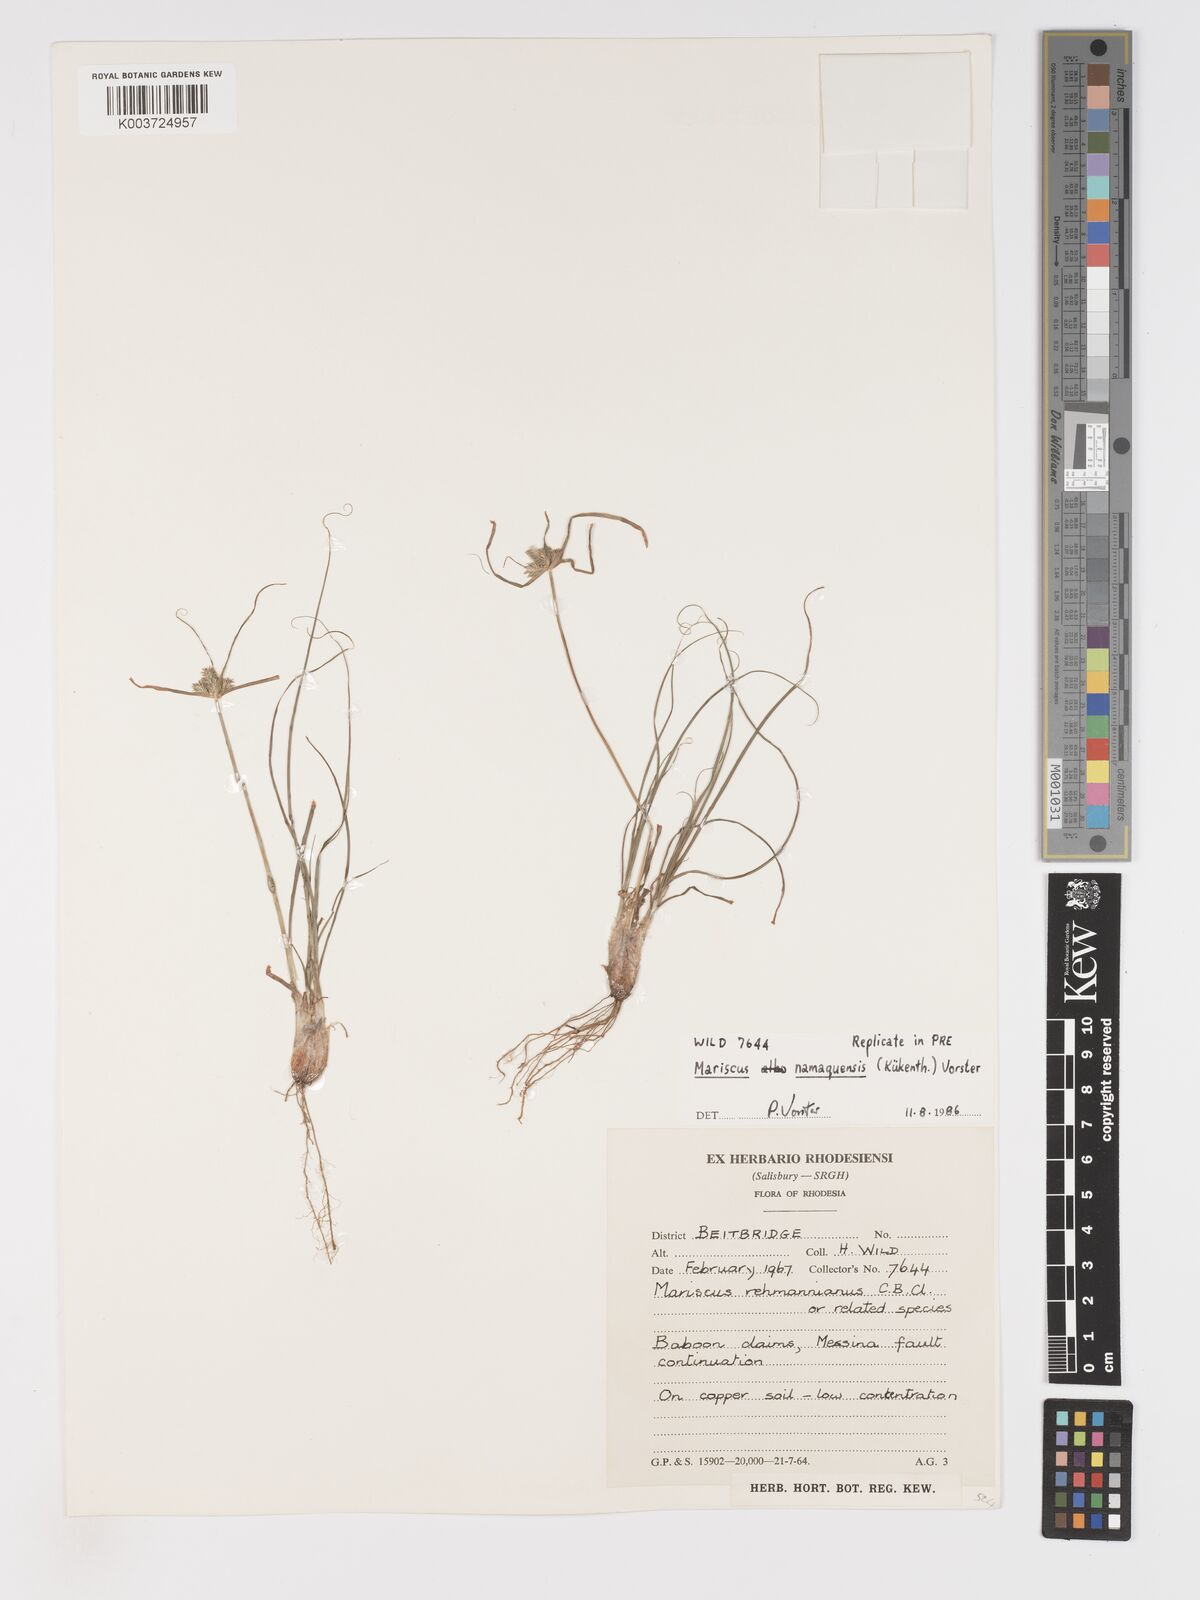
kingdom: Plantae
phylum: Tracheophyta
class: Liliopsida
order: Poales
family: Cyperaceae
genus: Cyperus
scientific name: Cyperus indecorus
